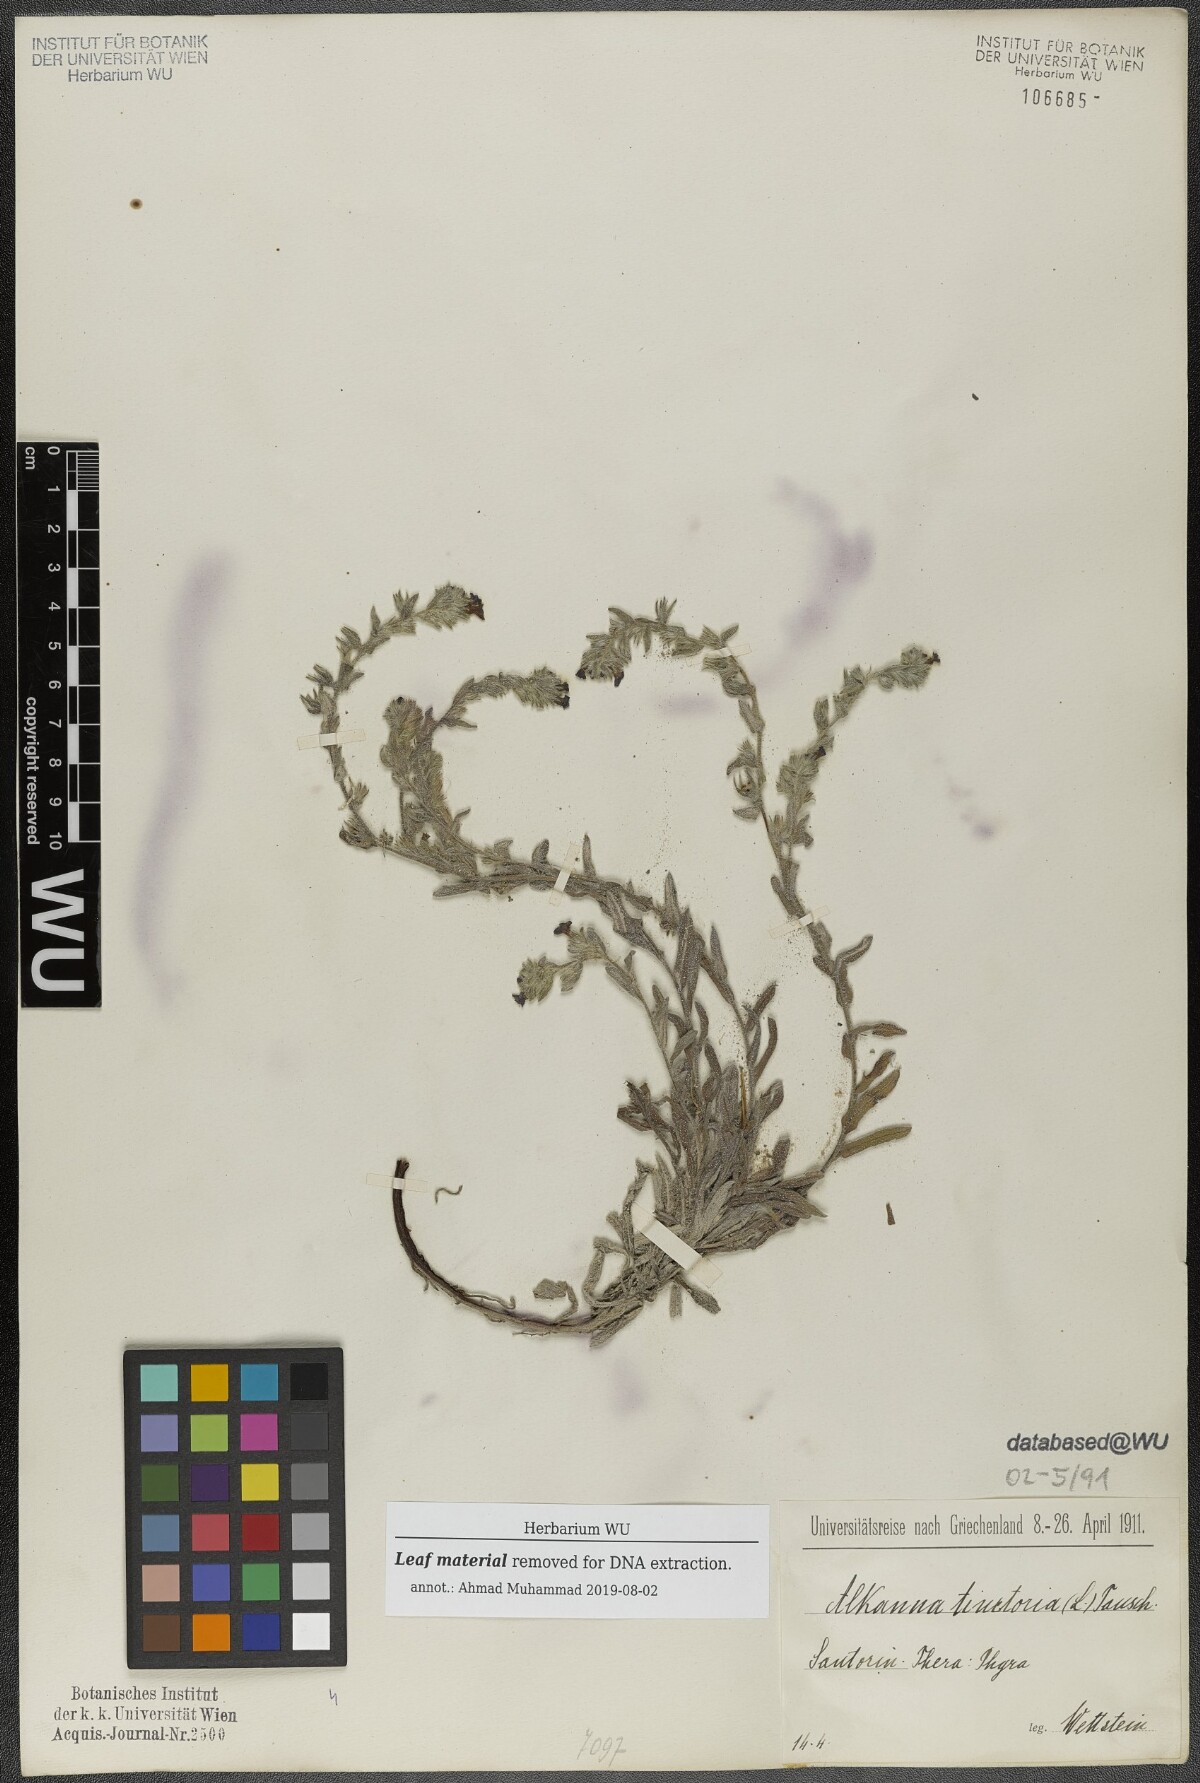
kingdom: Plantae
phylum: Tracheophyta
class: Magnoliopsida
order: Boraginales
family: Boraginaceae
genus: Alkanna
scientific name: Alkanna tinctoria
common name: Dyer's-alkanet
